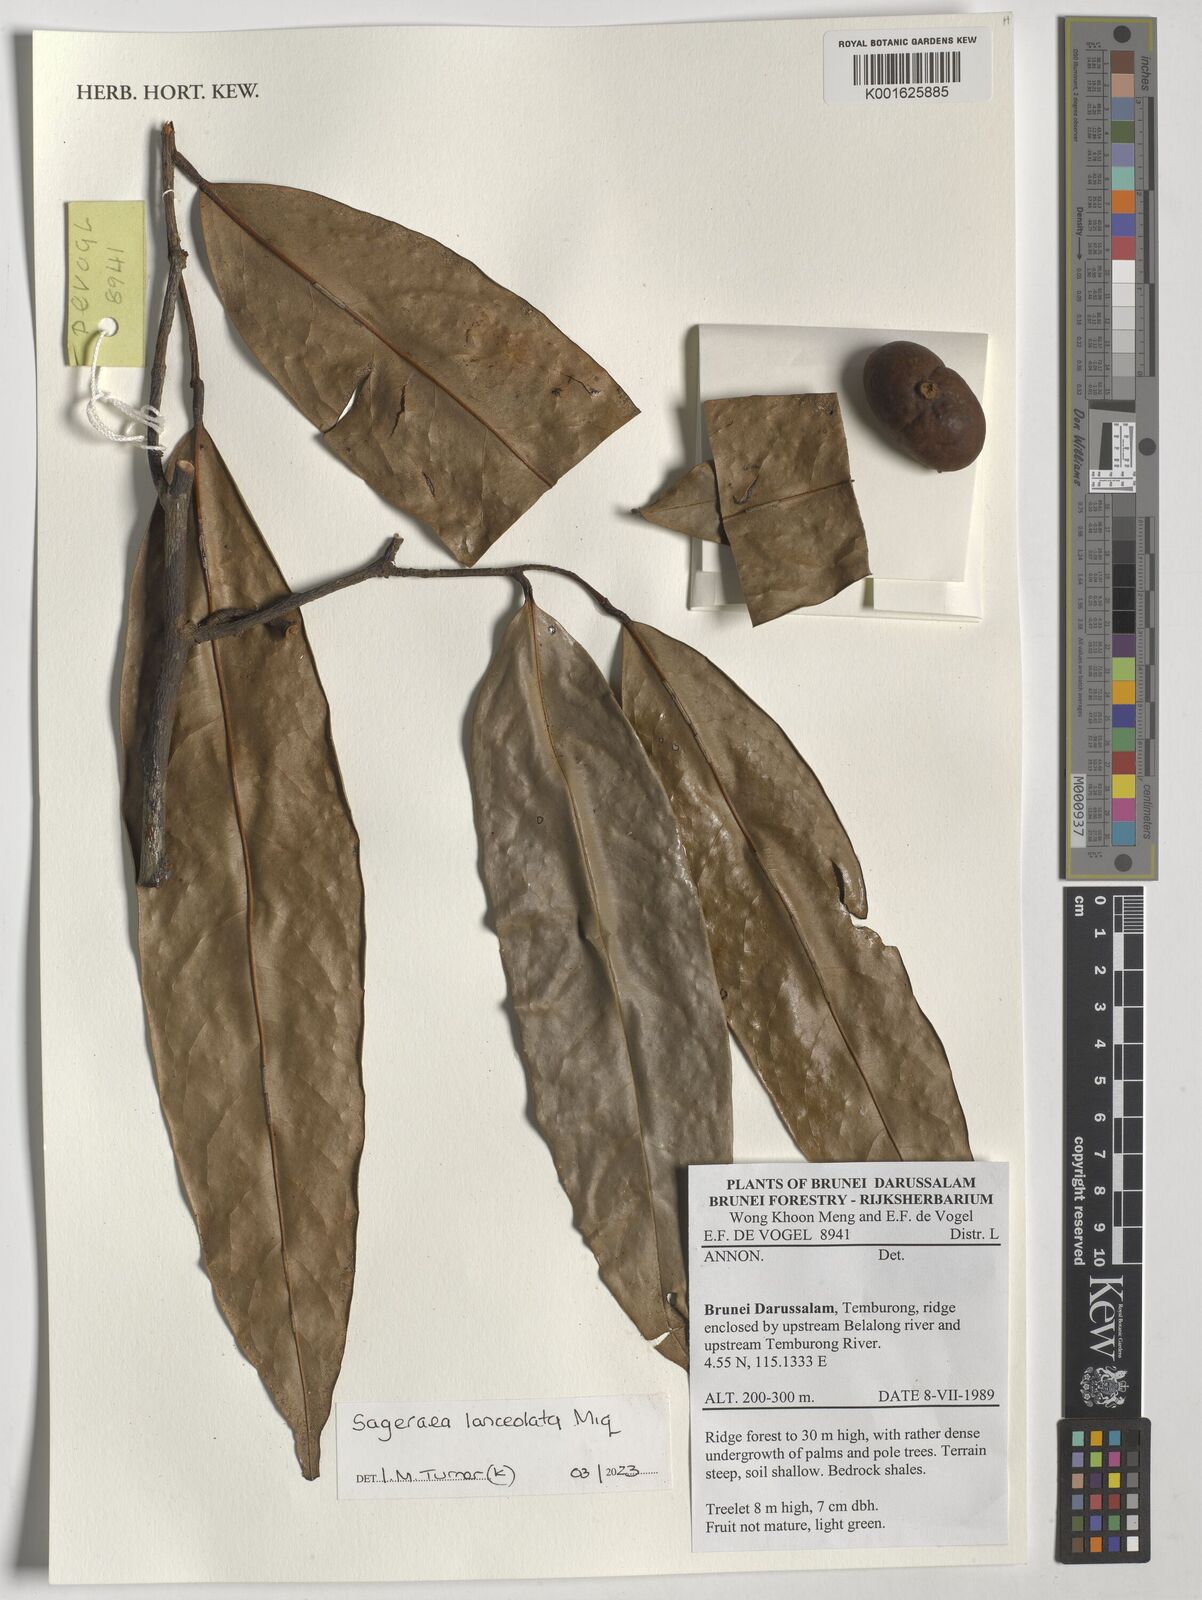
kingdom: Plantae
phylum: Tracheophyta
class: Magnoliopsida
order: Magnoliales
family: Annonaceae
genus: Sageraea
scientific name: Sageraea lanceolata
